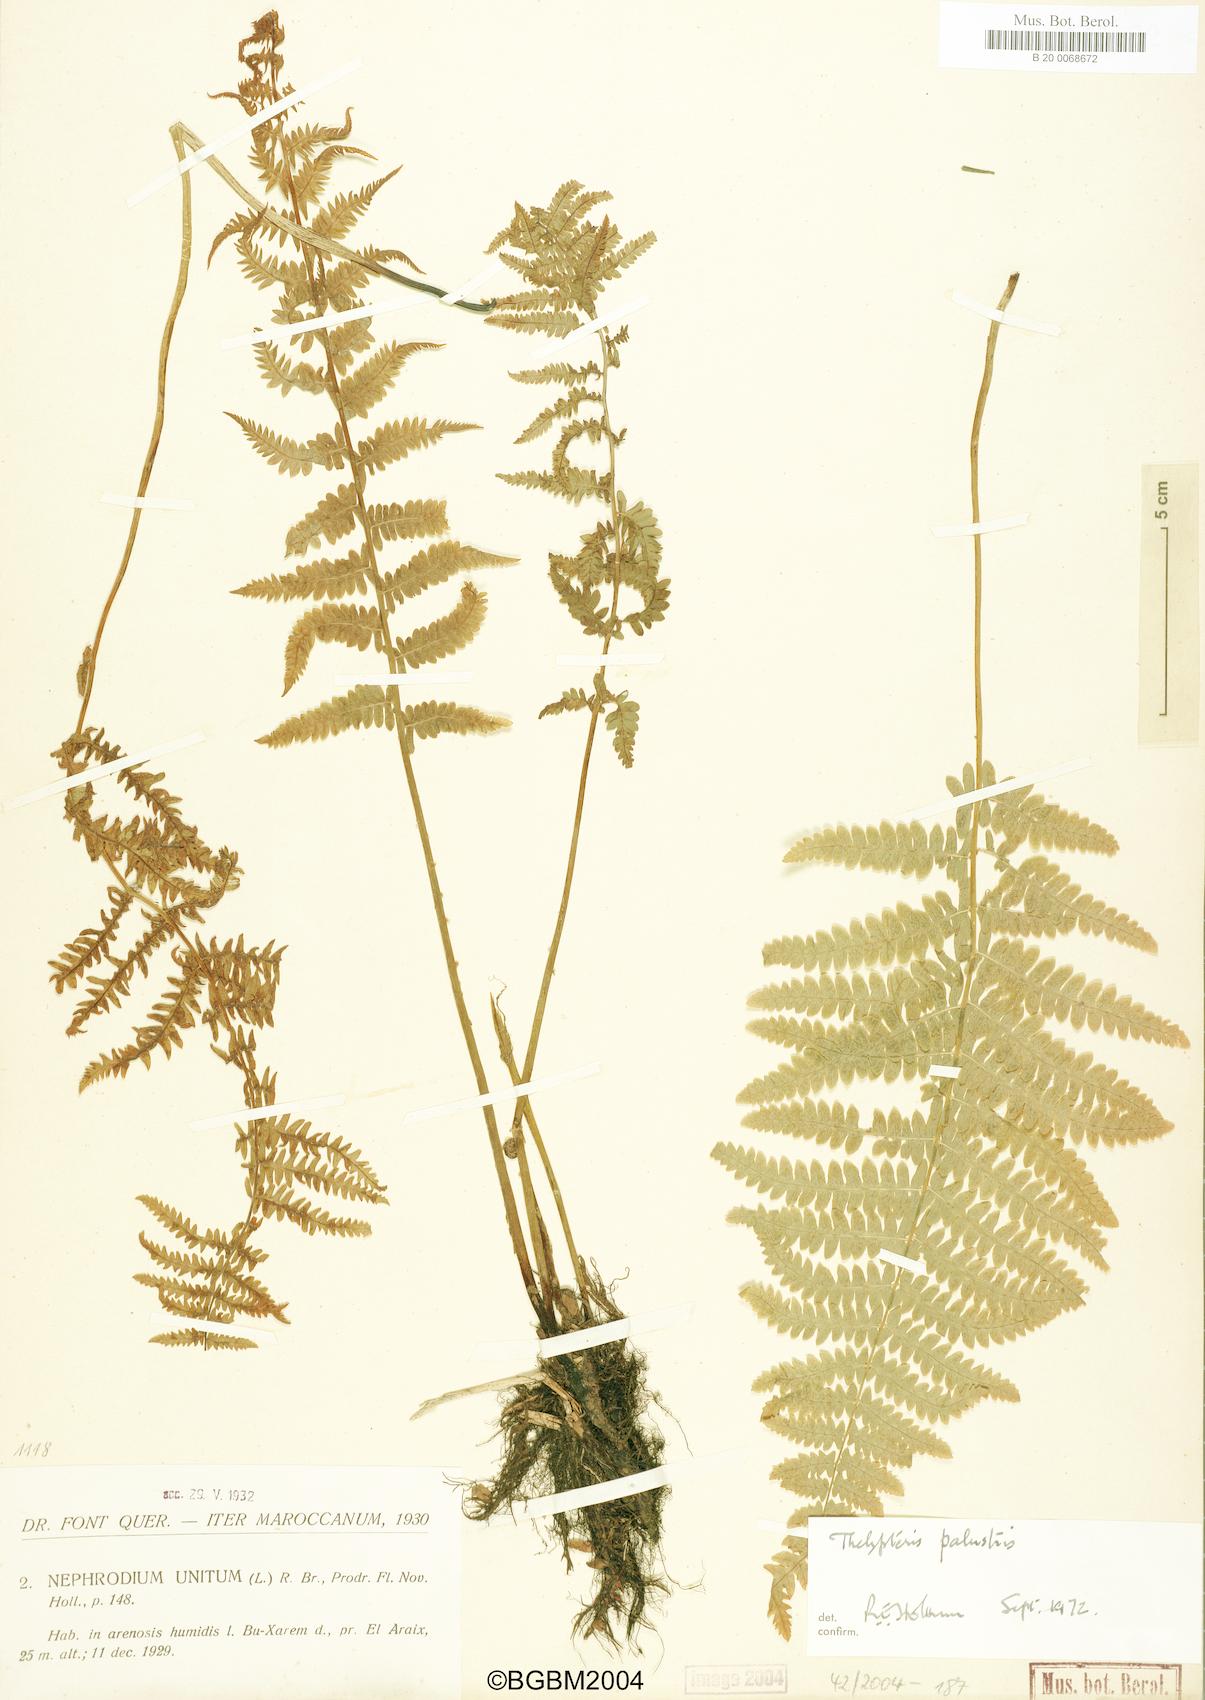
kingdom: Plantae
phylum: Tracheophyta
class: Polypodiopsida
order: Polypodiales
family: Thelypteridaceae
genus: Thelypteris
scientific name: Thelypteris palustris
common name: Marsh fern
